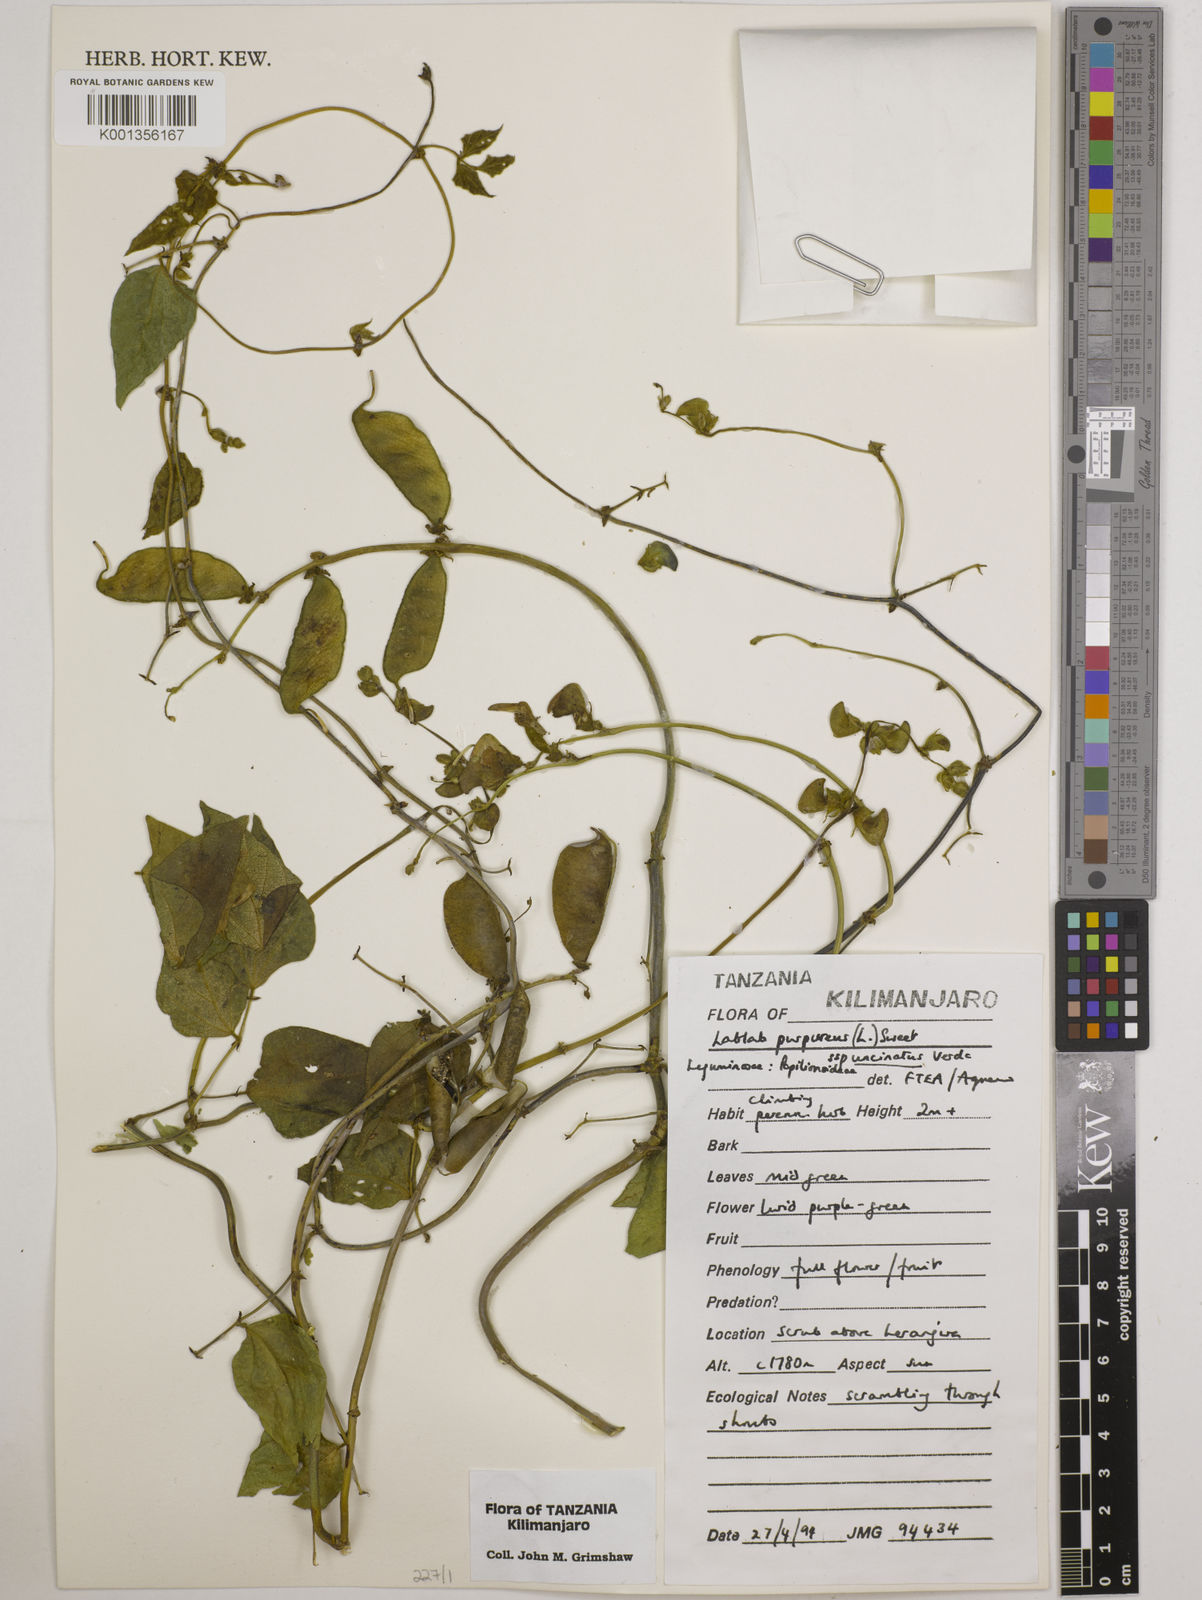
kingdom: Plantae
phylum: Tracheophyta
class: Magnoliopsida
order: Fabales
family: Fabaceae
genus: Lablab
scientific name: Lablab purpureus
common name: Lablab-bean
